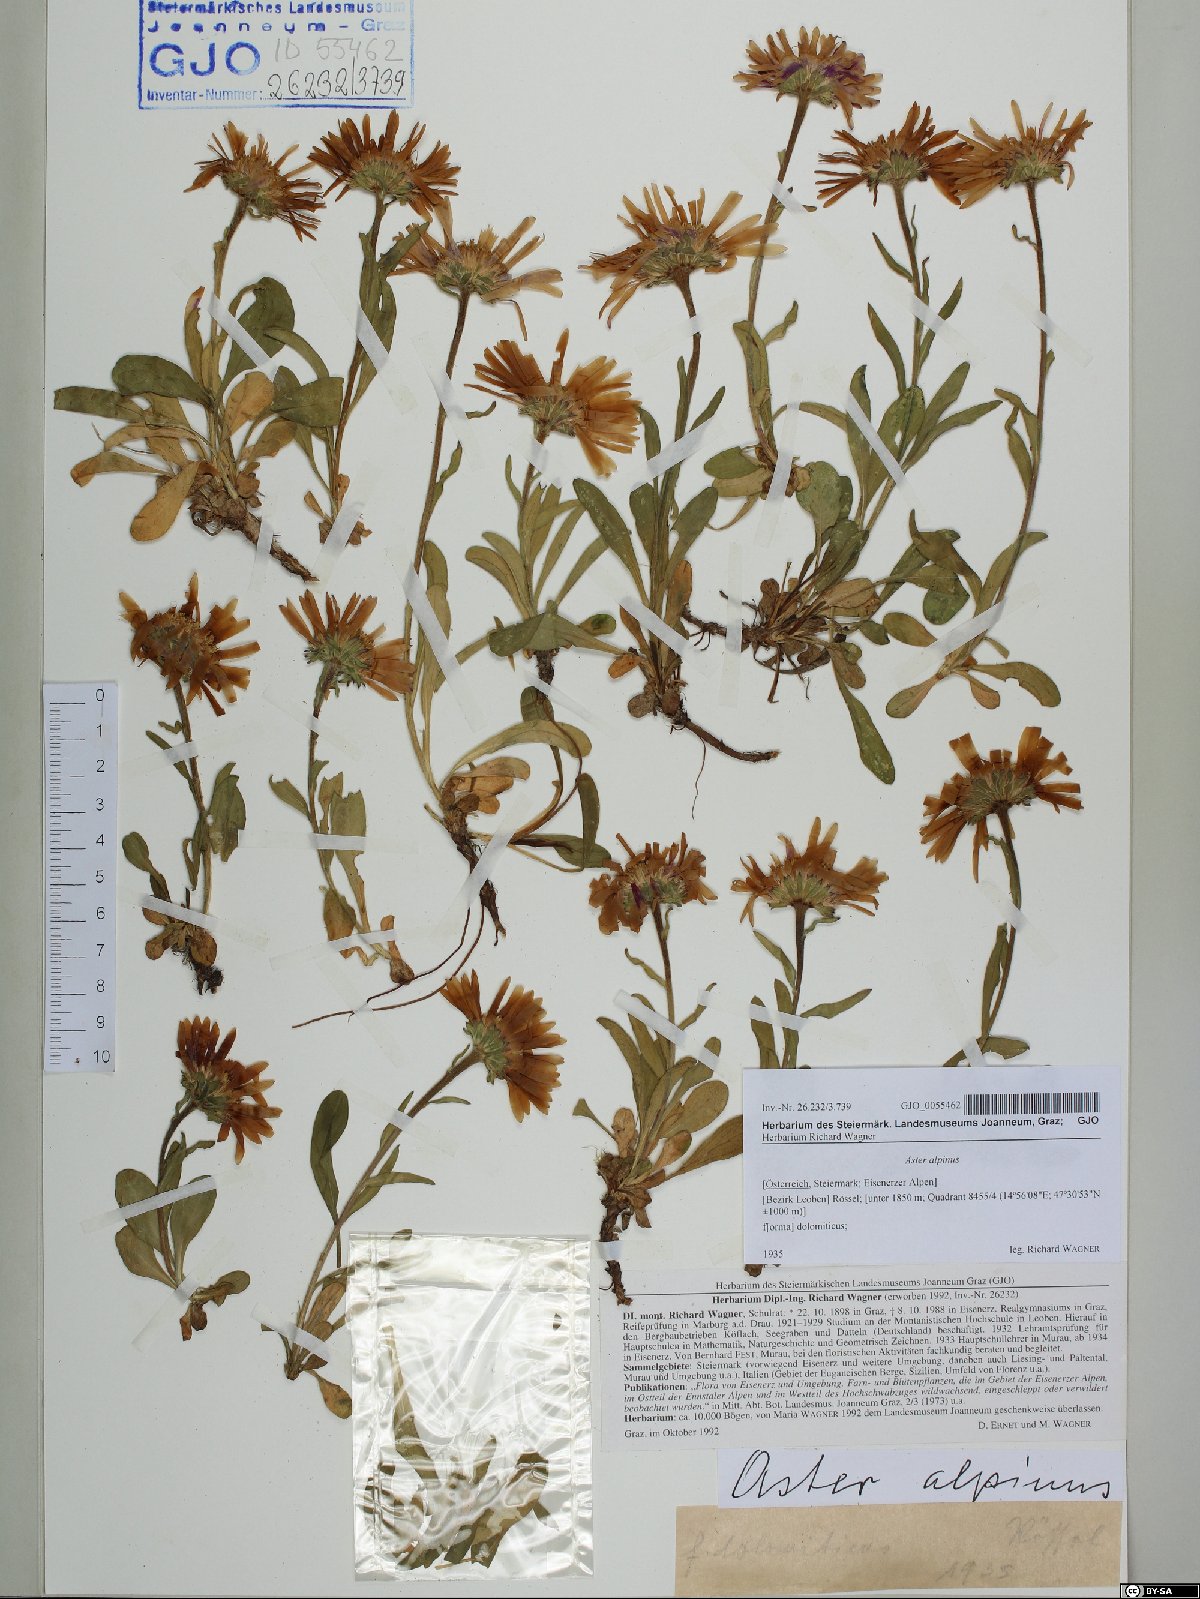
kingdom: Plantae
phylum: Tracheophyta
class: Magnoliopsida
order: Asterales
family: Asteraceae
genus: Aster
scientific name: Aster alpinus
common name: Alpine aster
